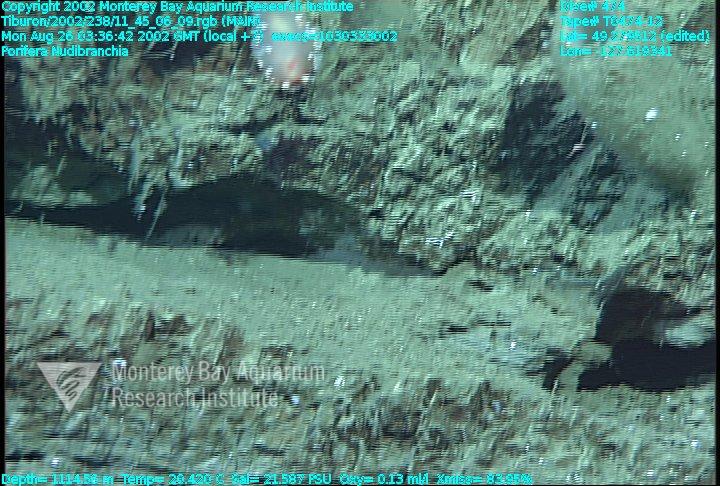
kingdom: Animalia
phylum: Porifera
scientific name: Porifera
